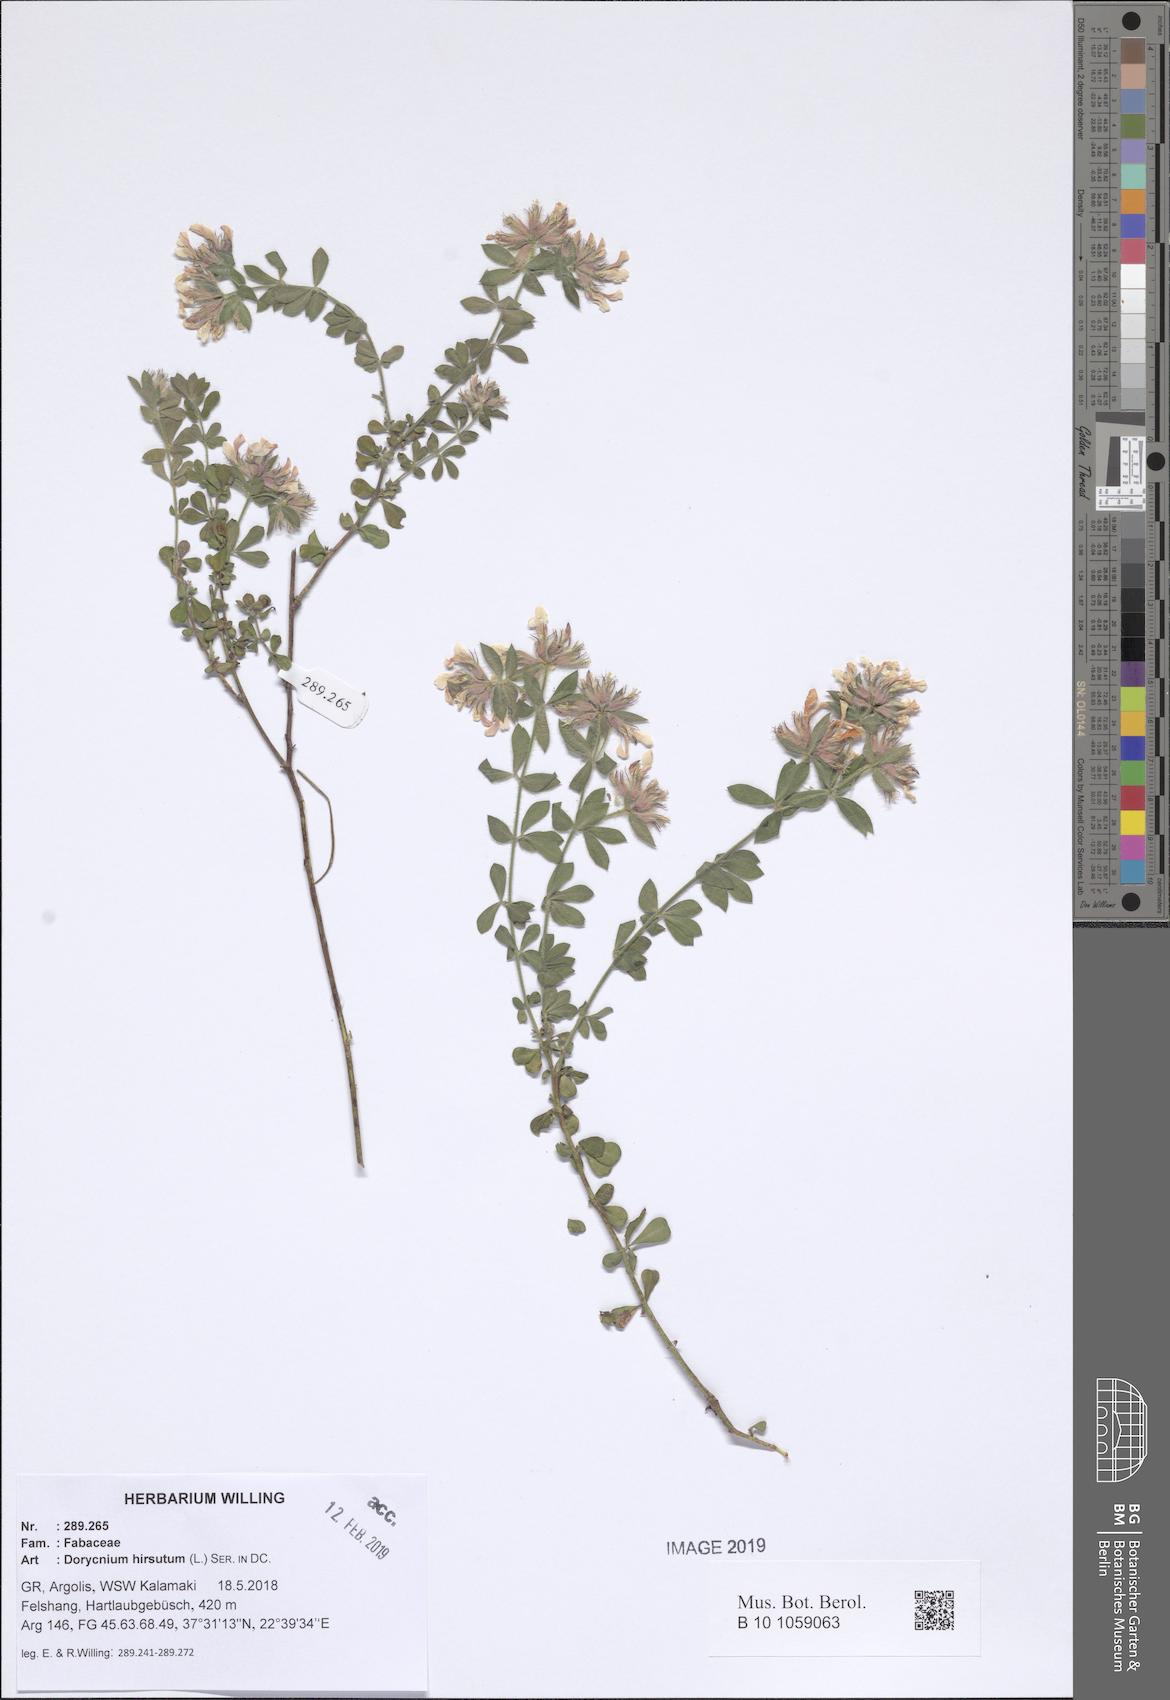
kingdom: Plantae
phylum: Tracheophyta
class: Magnoliopsida
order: Fabales
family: Fabaceae
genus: Lotus
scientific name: Lotus hirsutus
